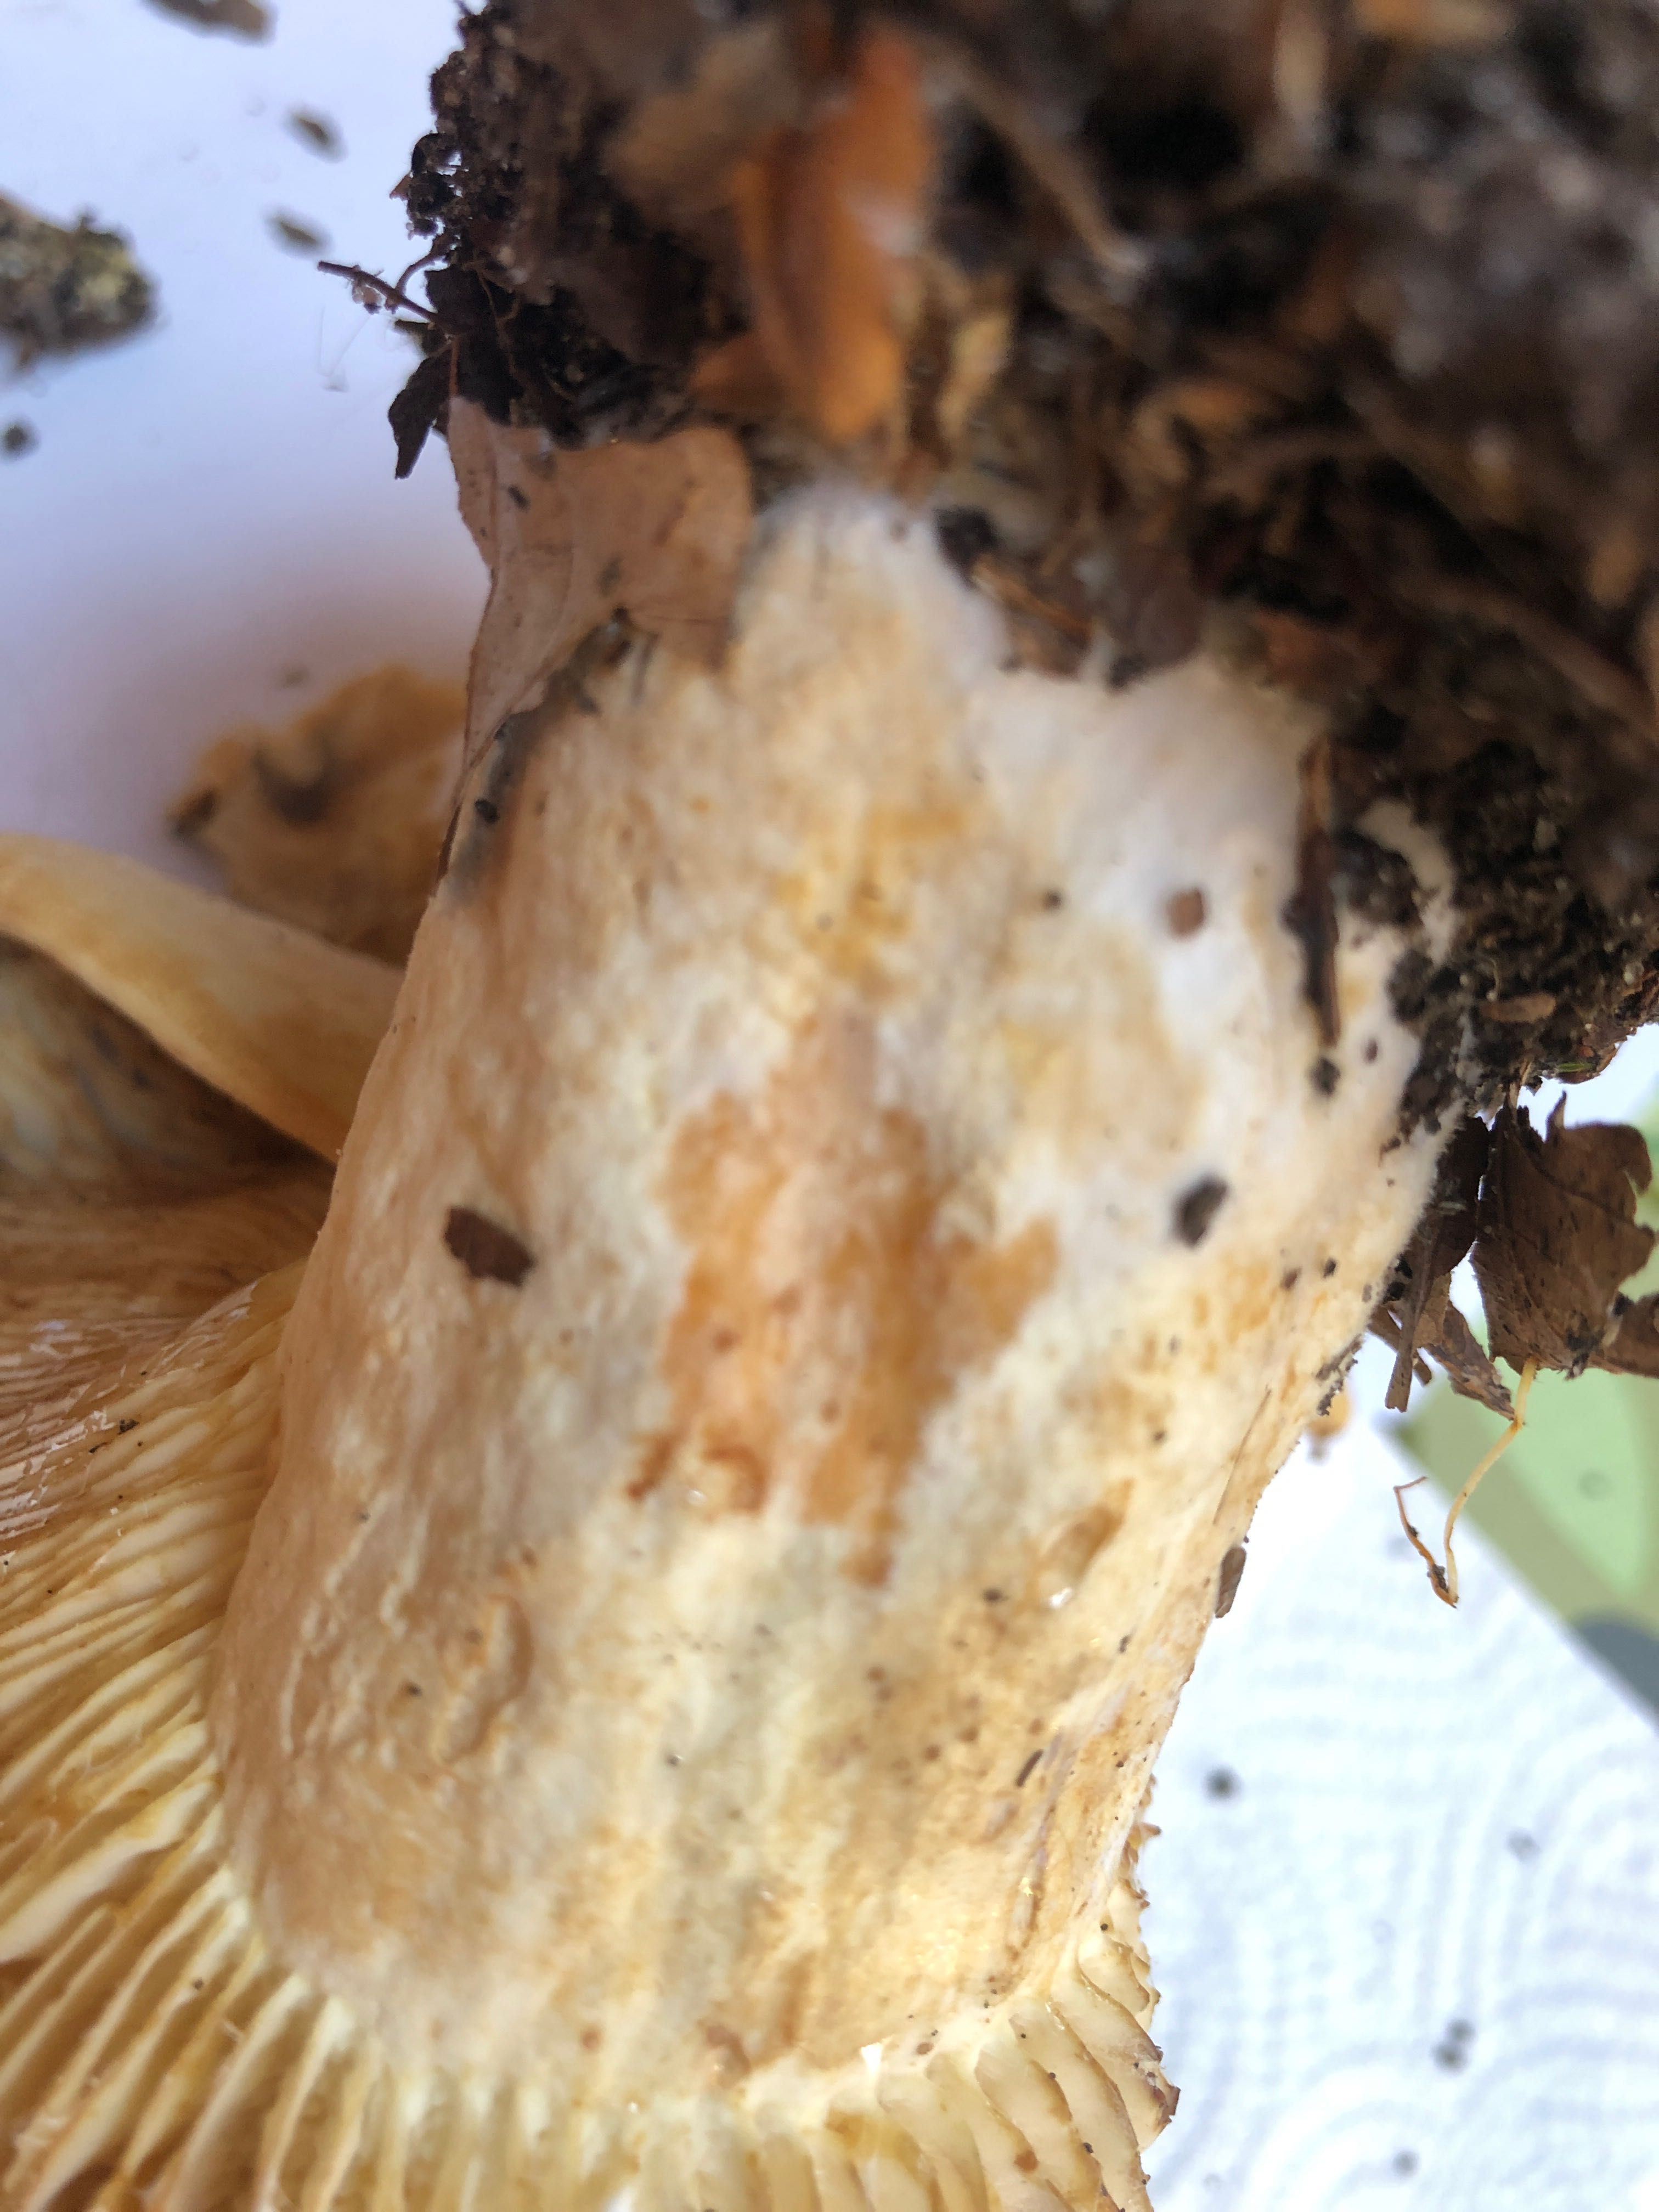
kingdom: Fungi
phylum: Basidiomycota
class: Agaricomycetes
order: Russulales
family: Russulaceae
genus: Lactifluus
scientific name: Lactifluus glaucescens
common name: grønplettet mælkehat
